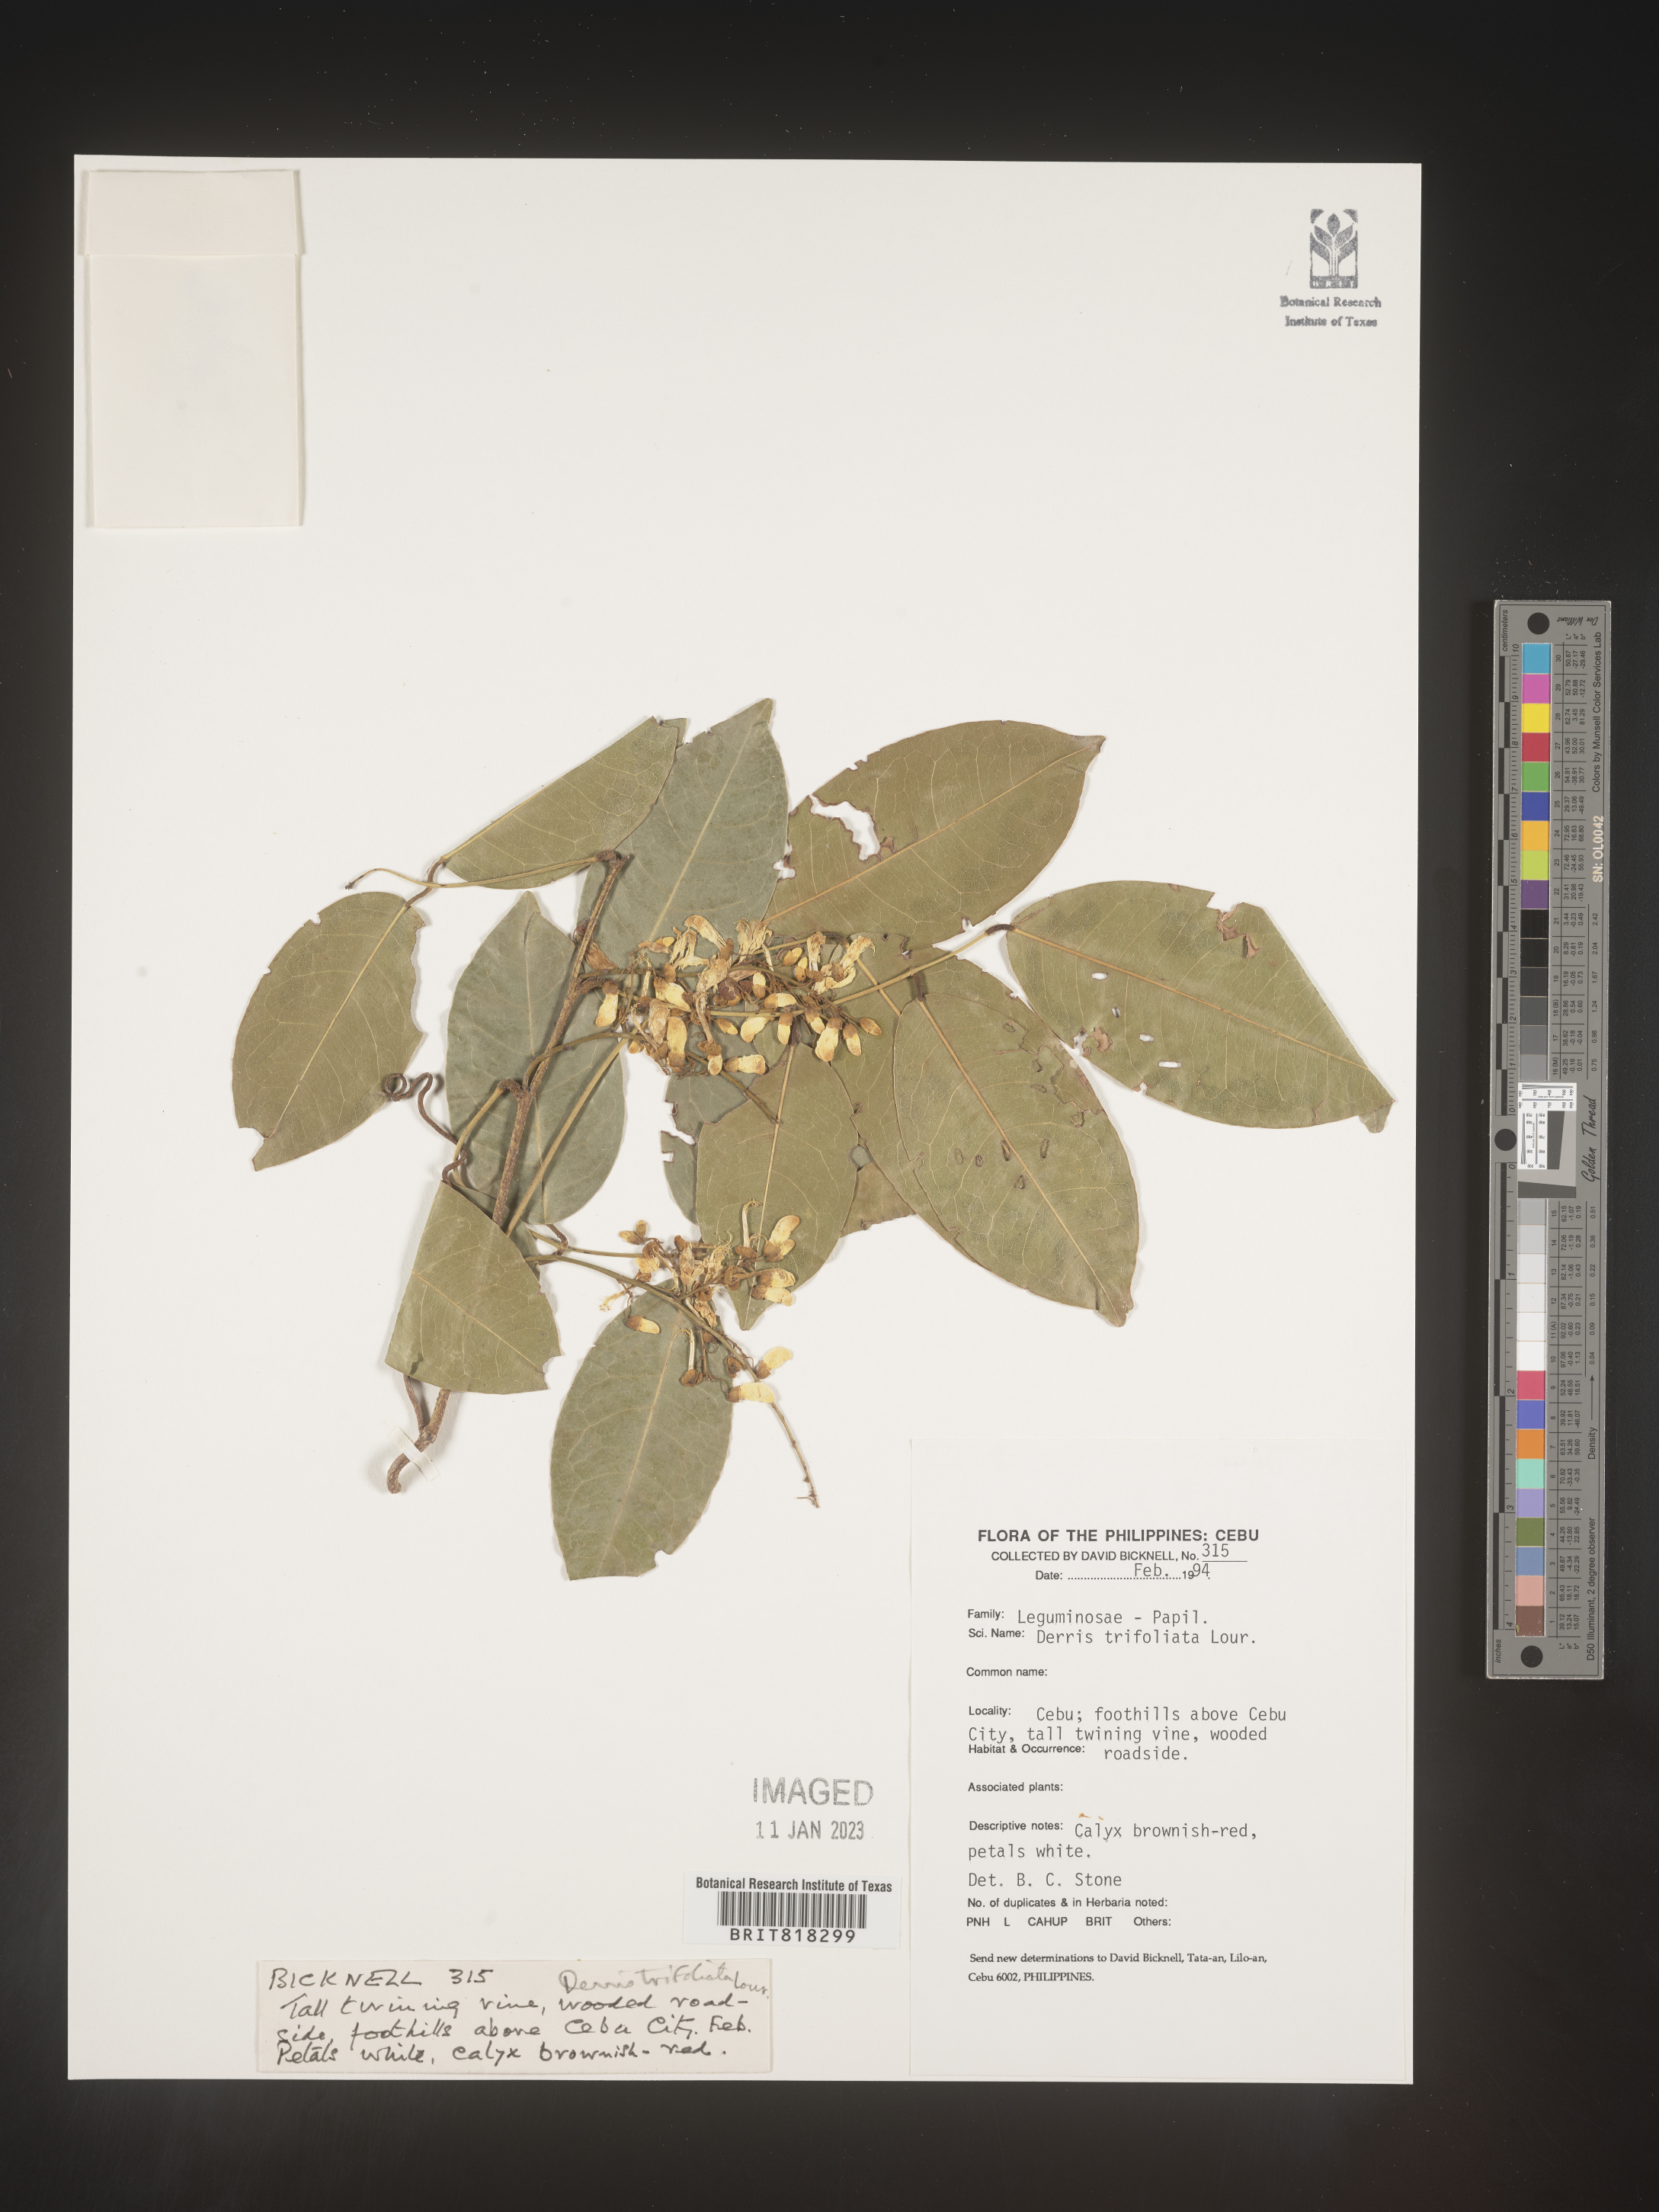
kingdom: Plantae
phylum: Tracheophyta
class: Magnoliopsida
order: Fabales
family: Fabaceae
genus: Derris
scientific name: Derris
